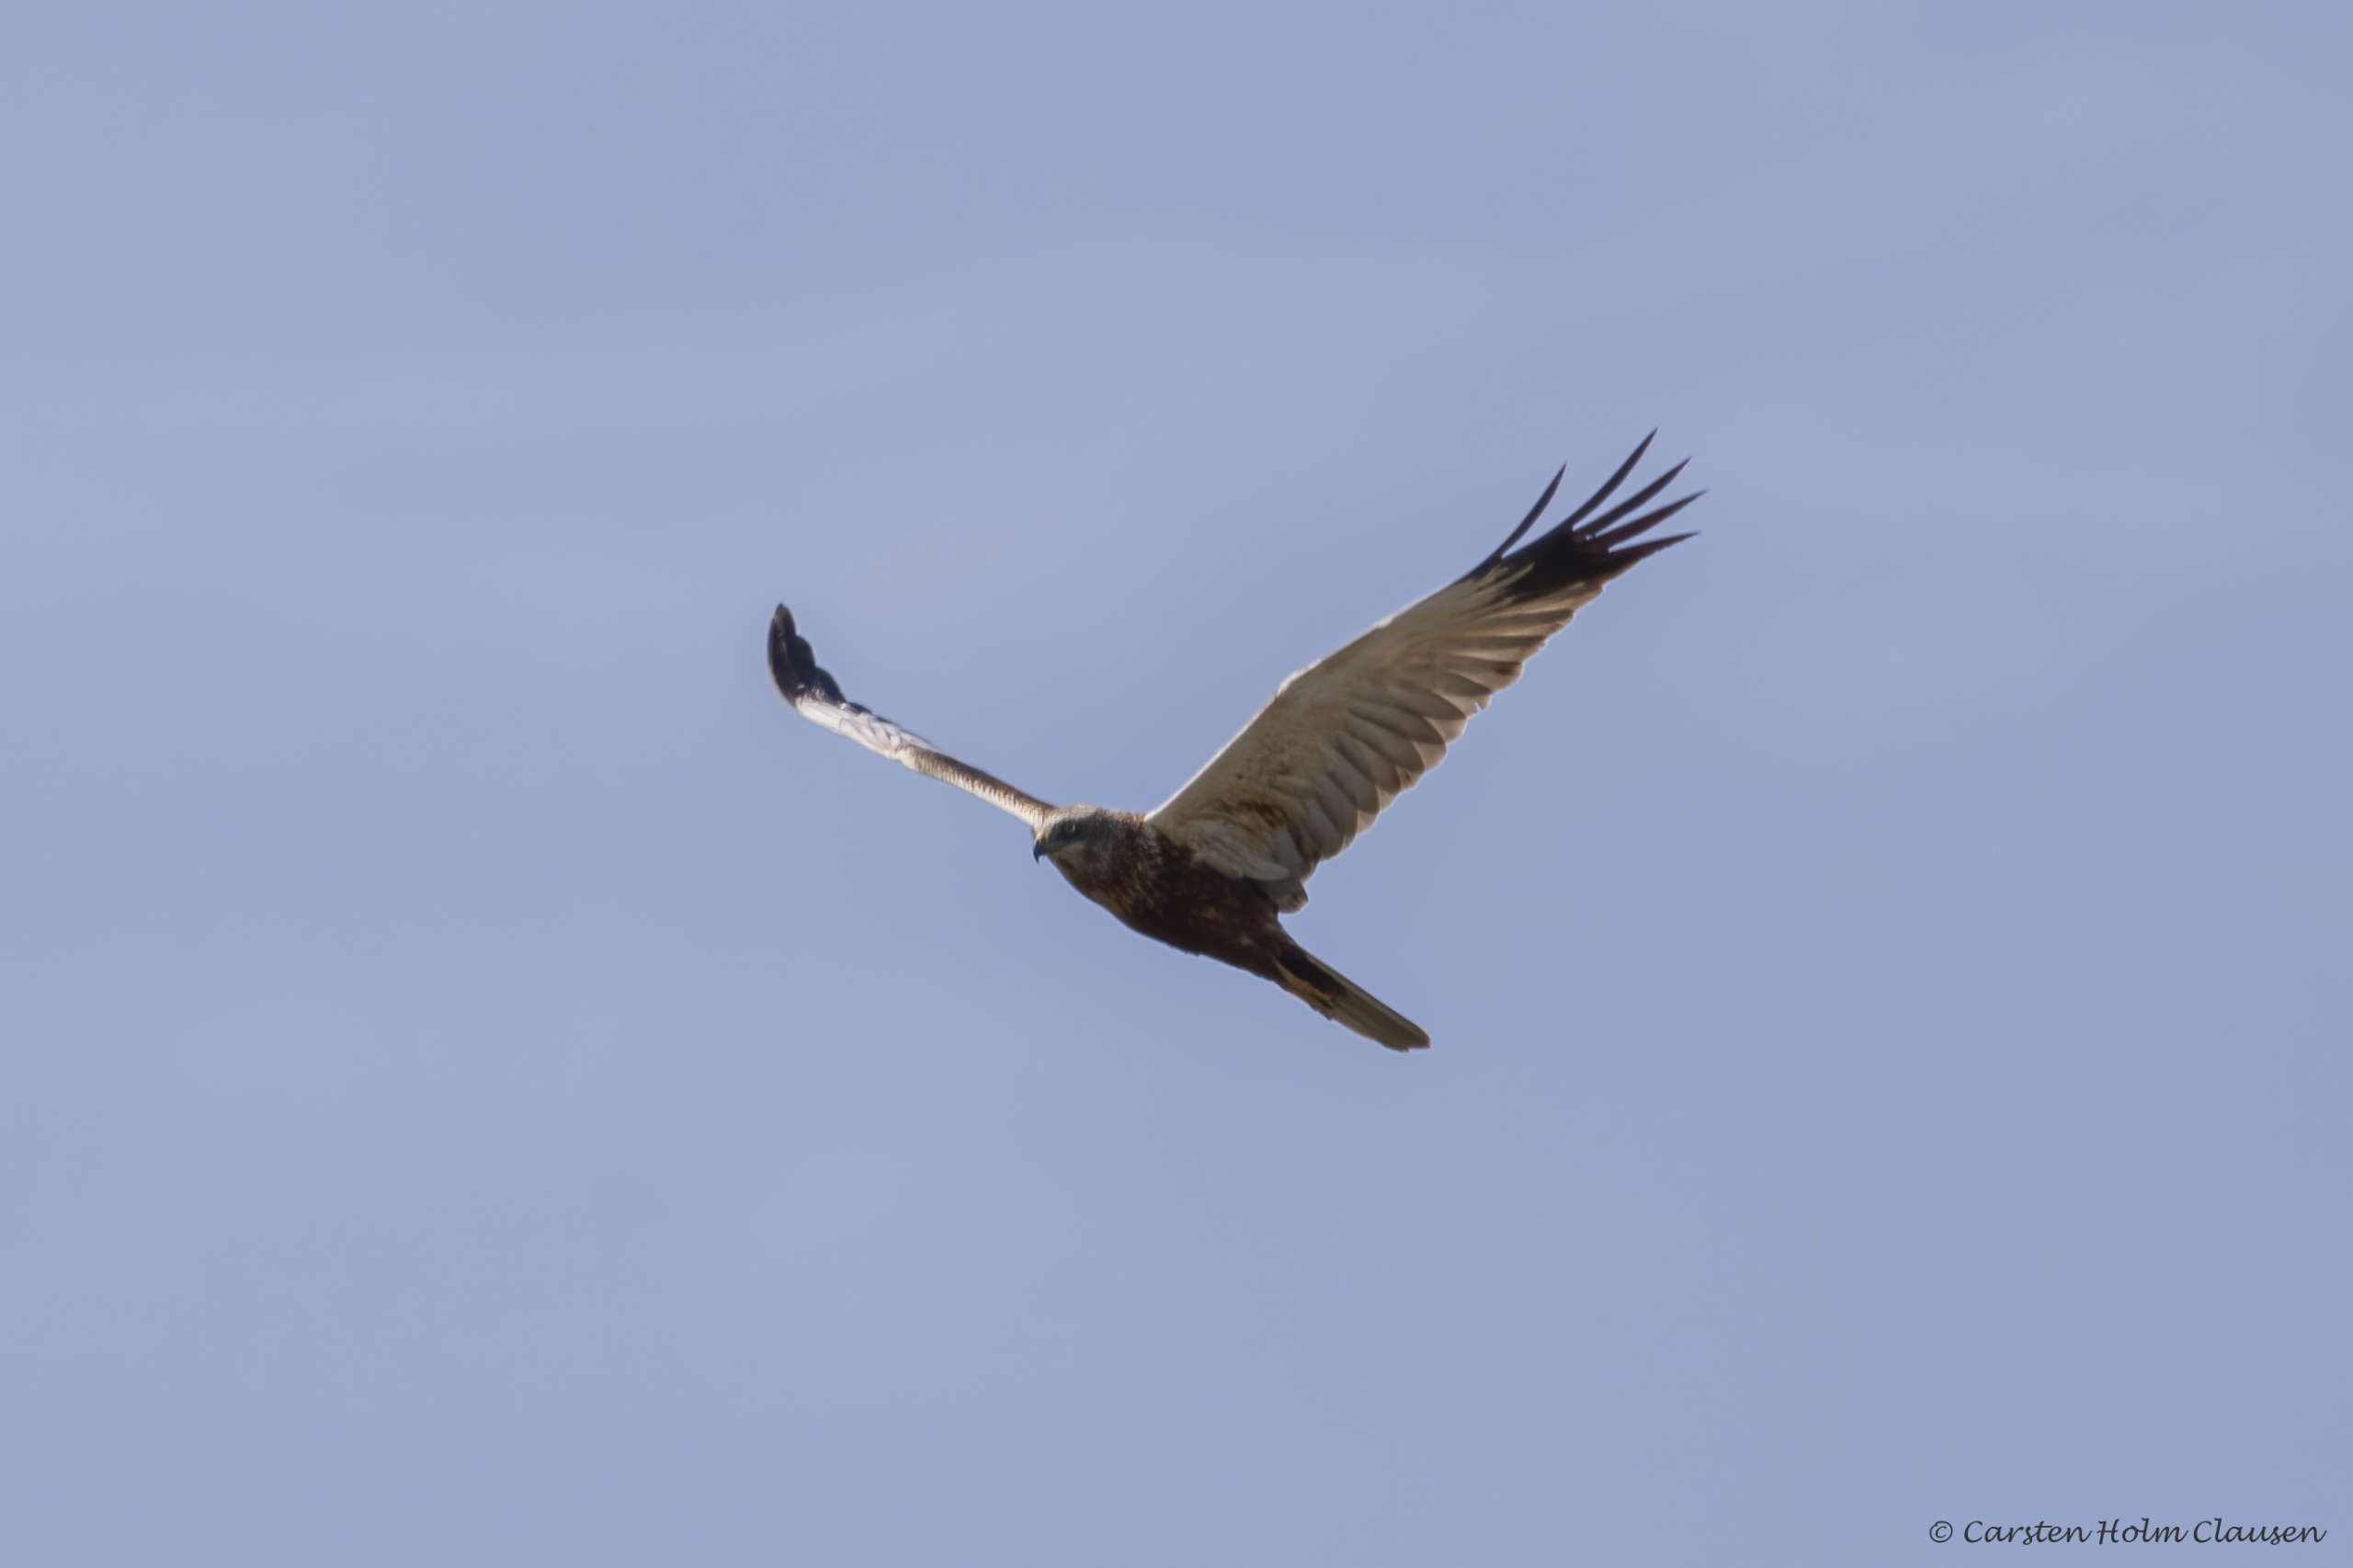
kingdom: Animalia
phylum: Chordata
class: Aves
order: Accipitriformes
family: Accipitridae
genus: Circus
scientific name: Circus aeruginosus
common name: Rørhøg
